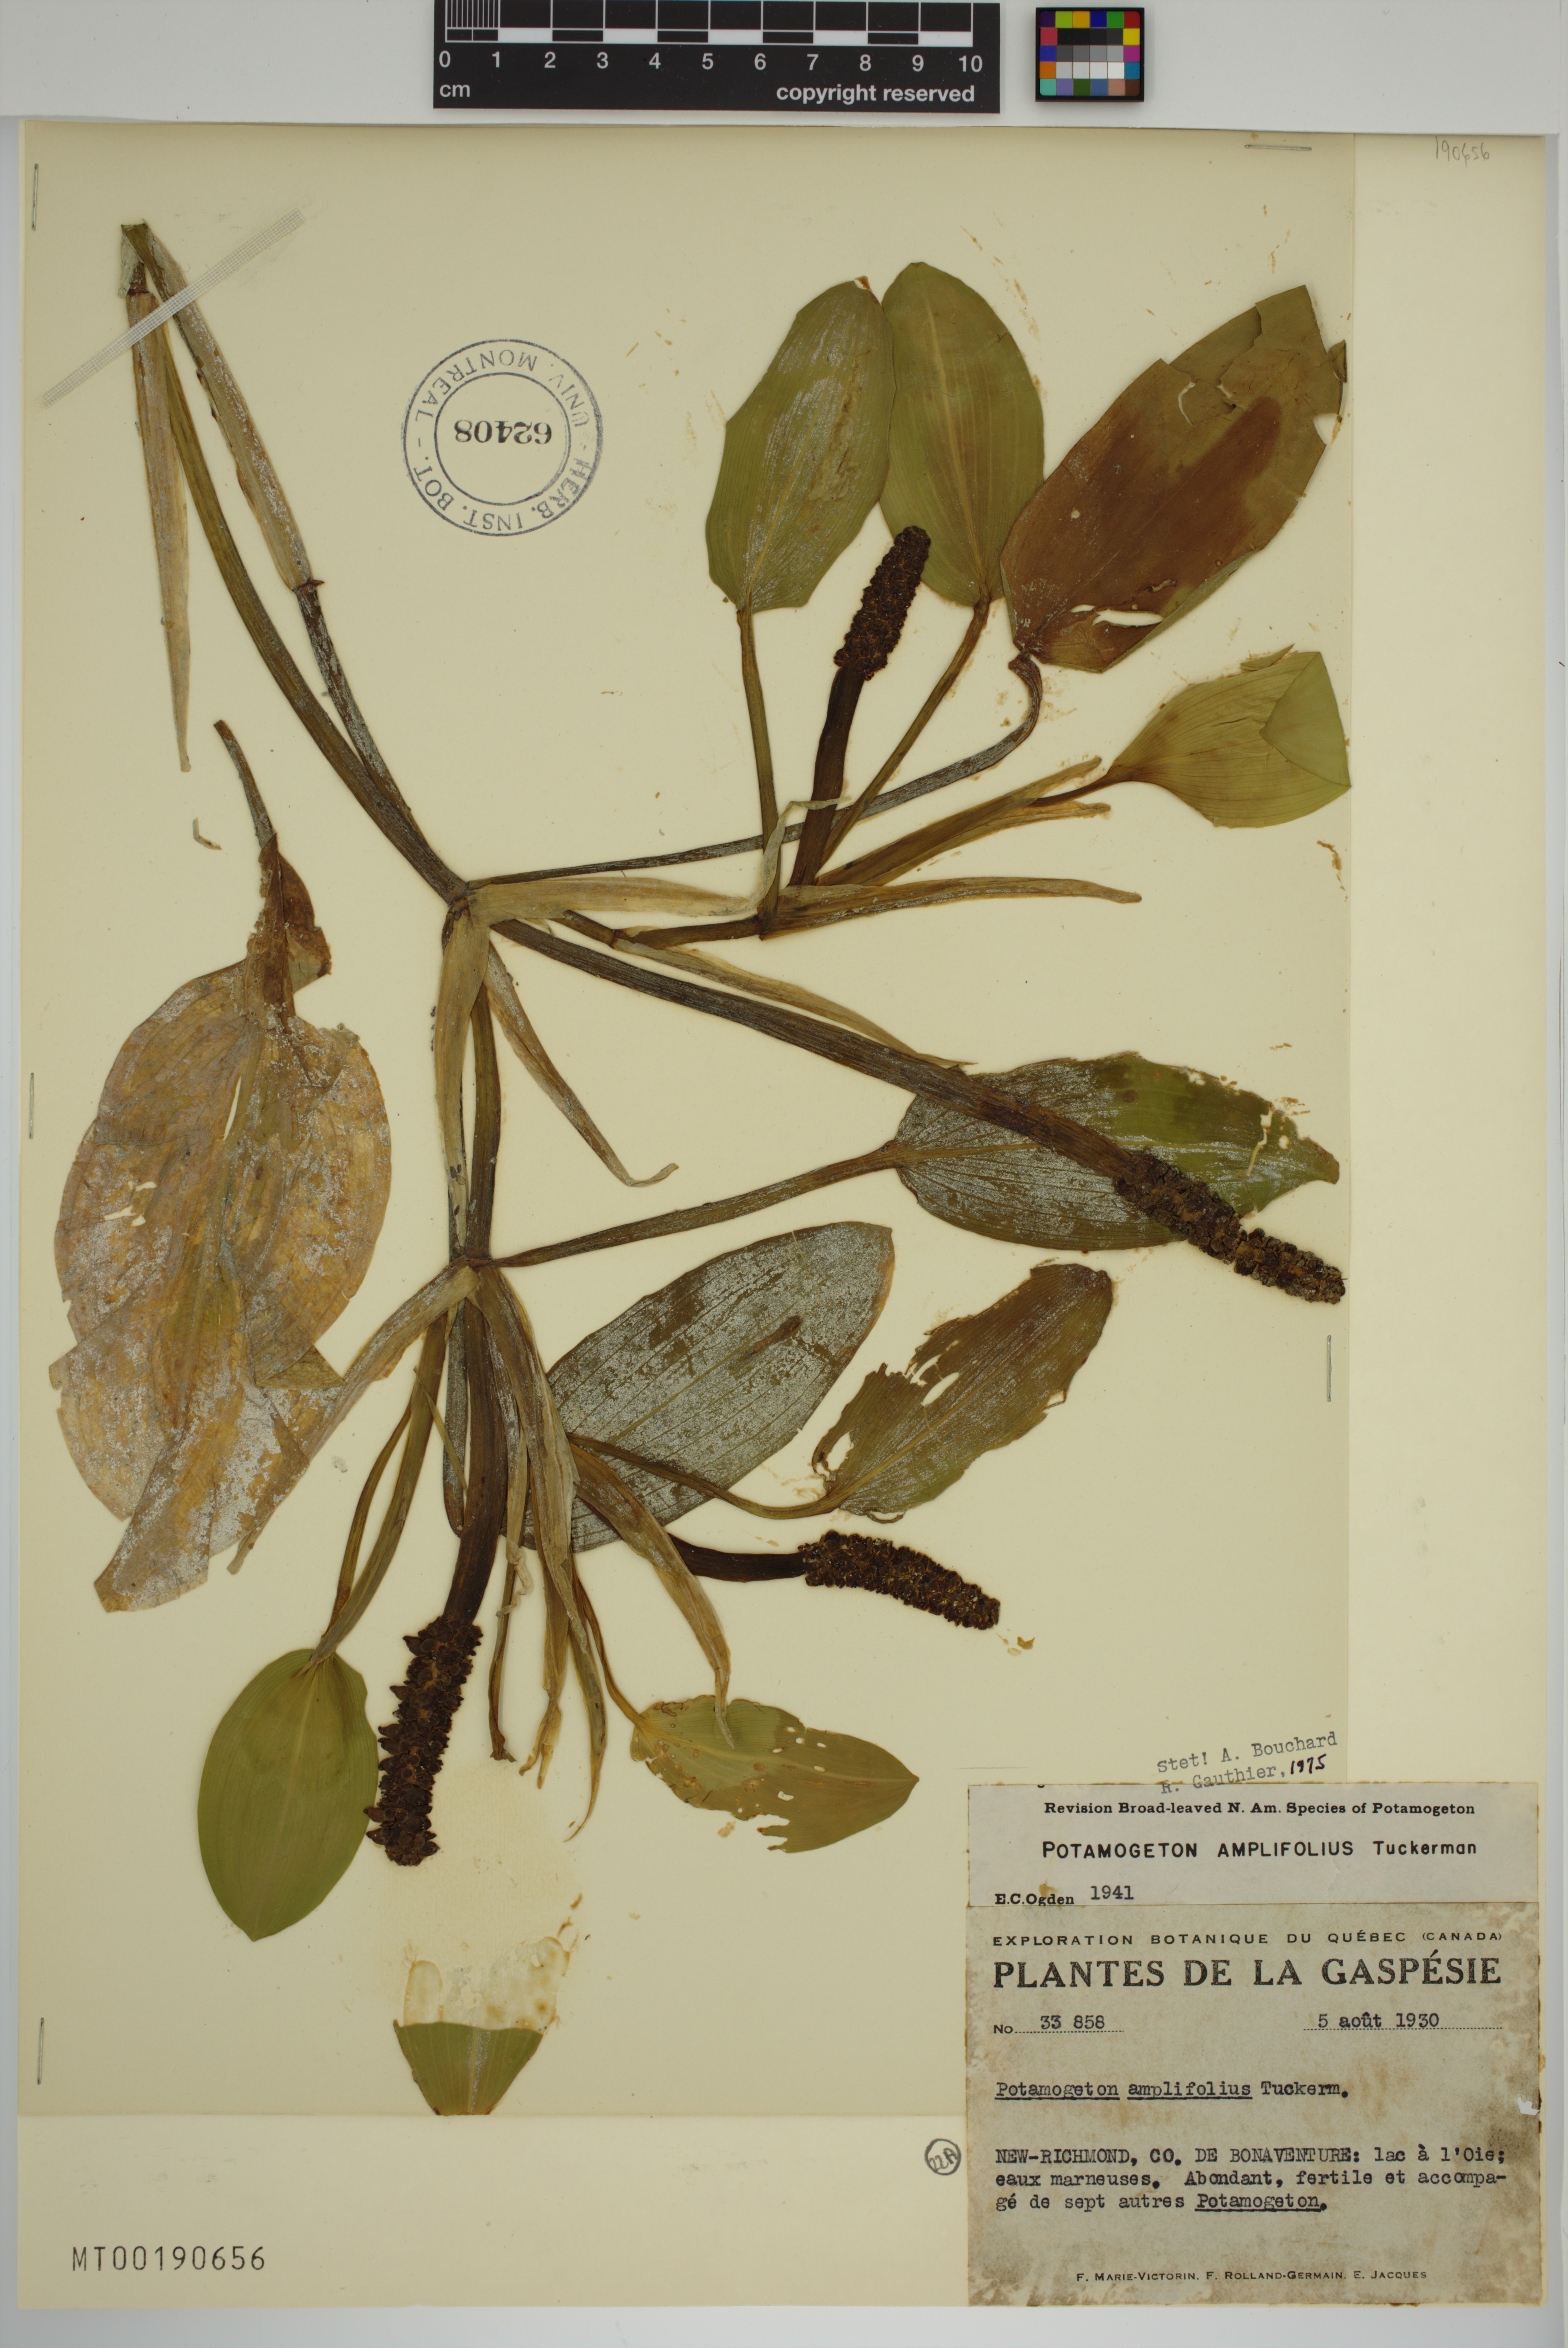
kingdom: Plantae
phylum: Tracheophyta
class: Liliopsida
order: Alismatales
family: Potamogetonaceae
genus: Potamogeton
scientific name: Potamogeton amplifolius
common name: Broad-leaved pondweed
